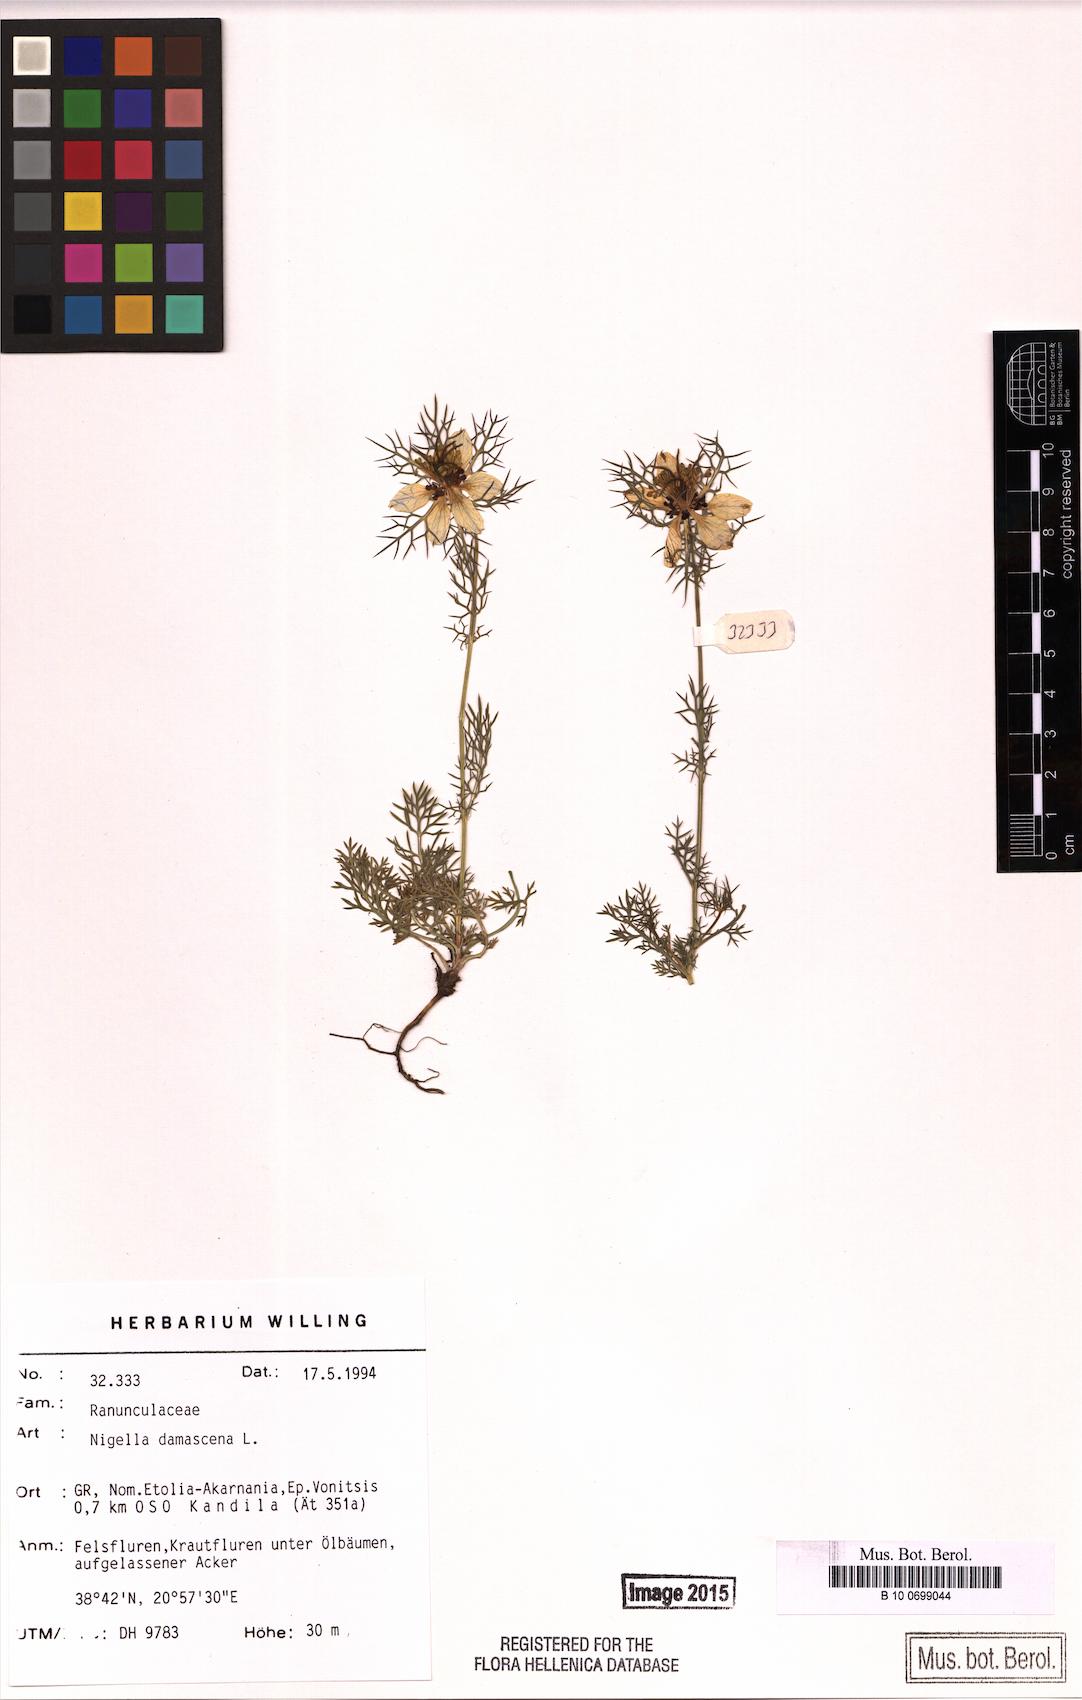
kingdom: Plantae
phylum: Tracheophyta
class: Magnoliopsida
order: Ranunculales
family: Ranunculaceae
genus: Nigella
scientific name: Nigella damascena
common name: Love-in-a-mist
